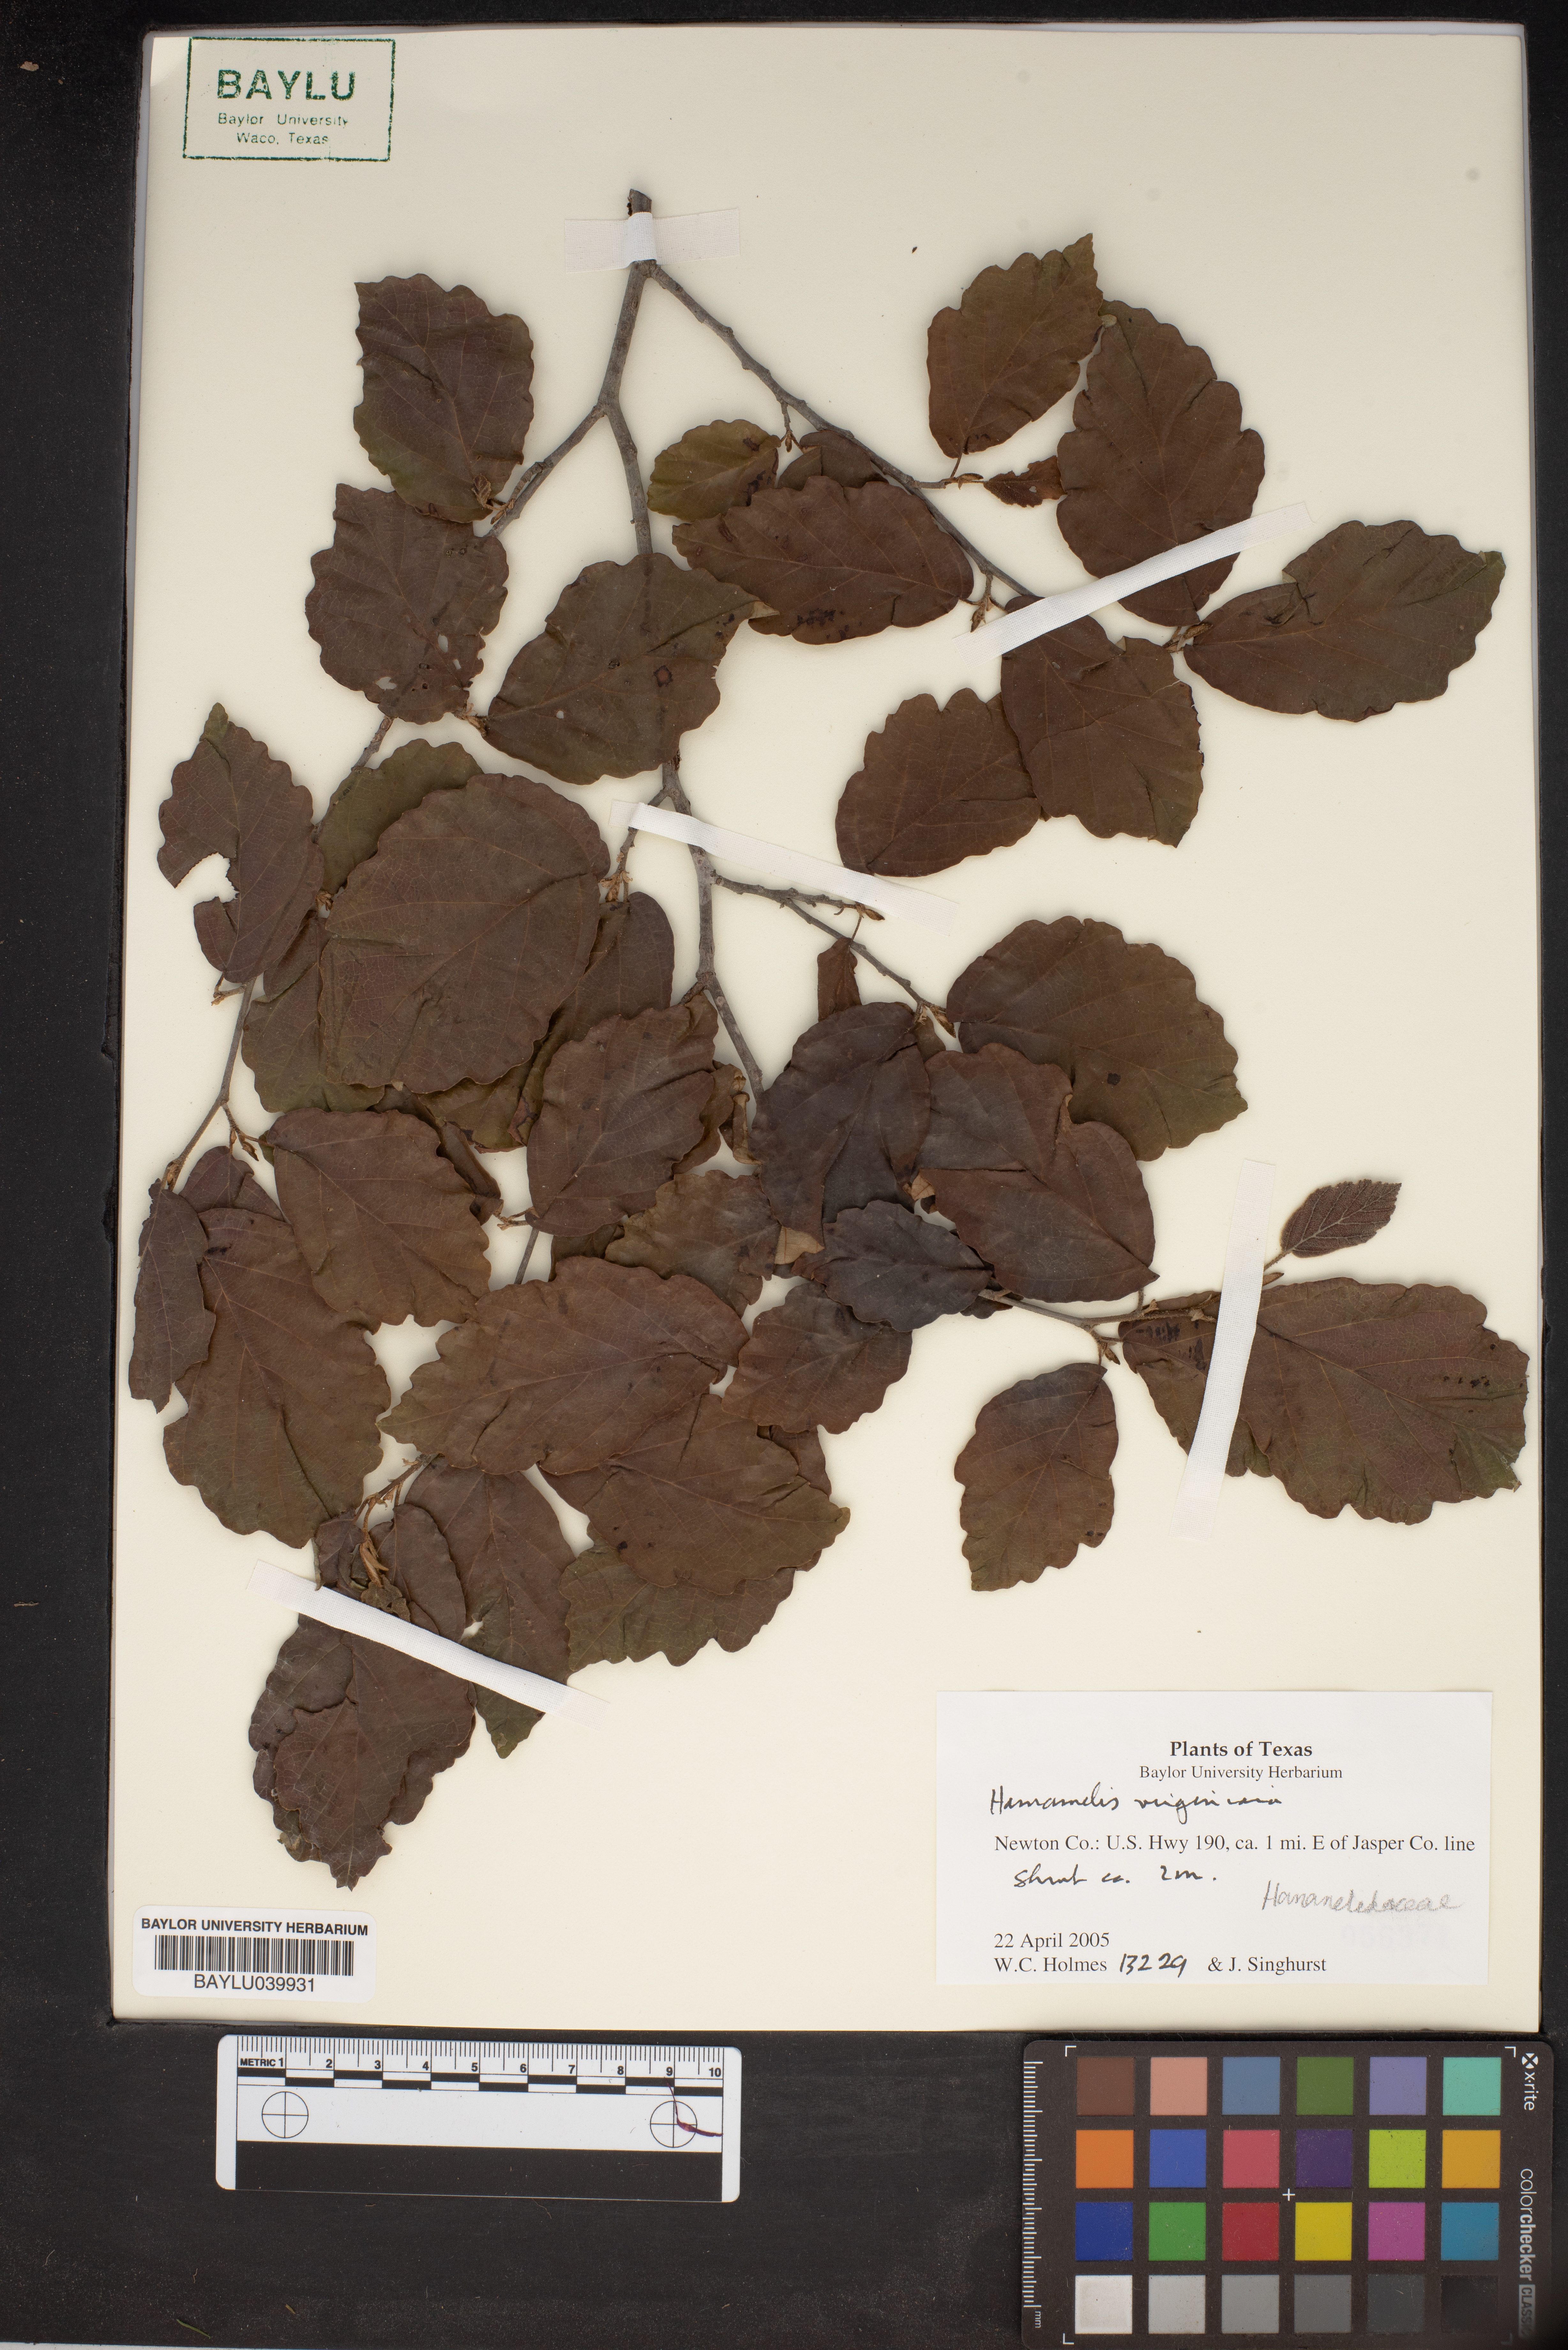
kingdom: Plantae
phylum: Tracheophyta
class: Magnoliopsida
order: Saxifragales
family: Hamamelidaceae
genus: Hamamelis
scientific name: Hamamelis virginiana
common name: Witch-hazel
